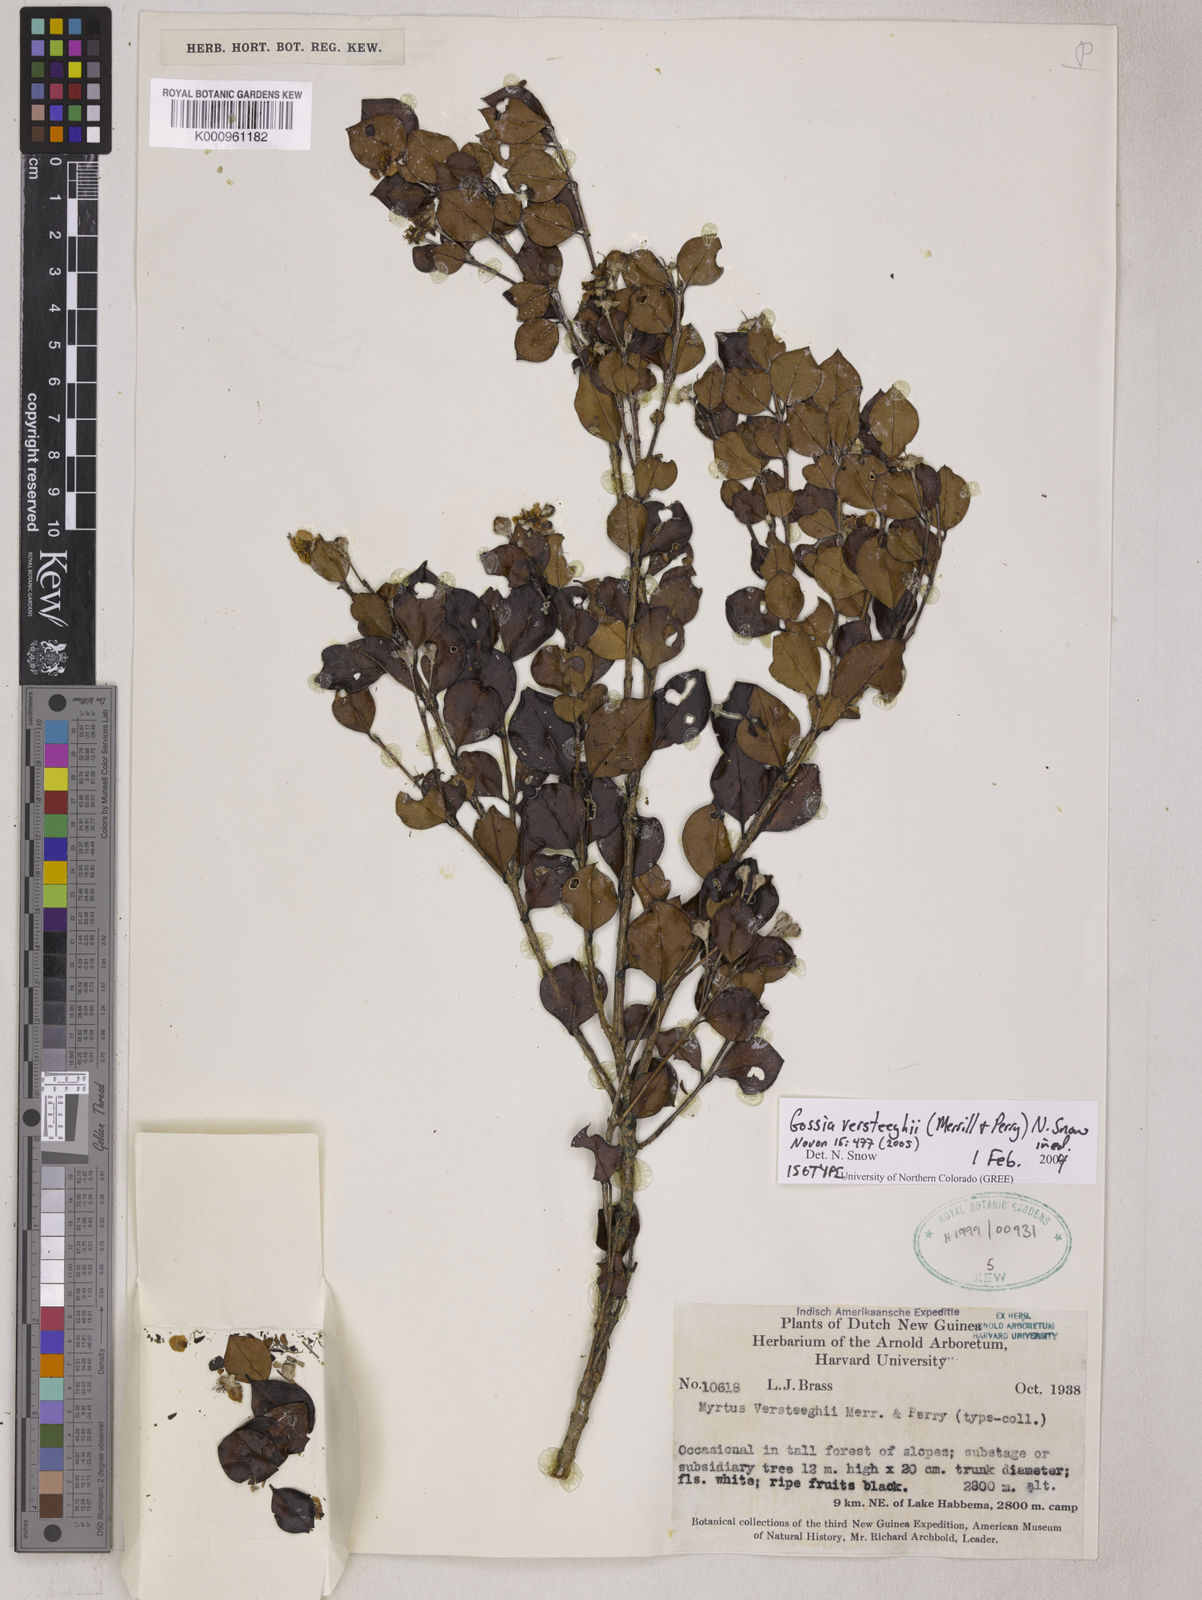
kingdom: Plantae
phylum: Tracheophyta
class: Magnoliopsida
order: Myrtales
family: Myrtaceae
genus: Gossia
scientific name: Gossia versteeghii
